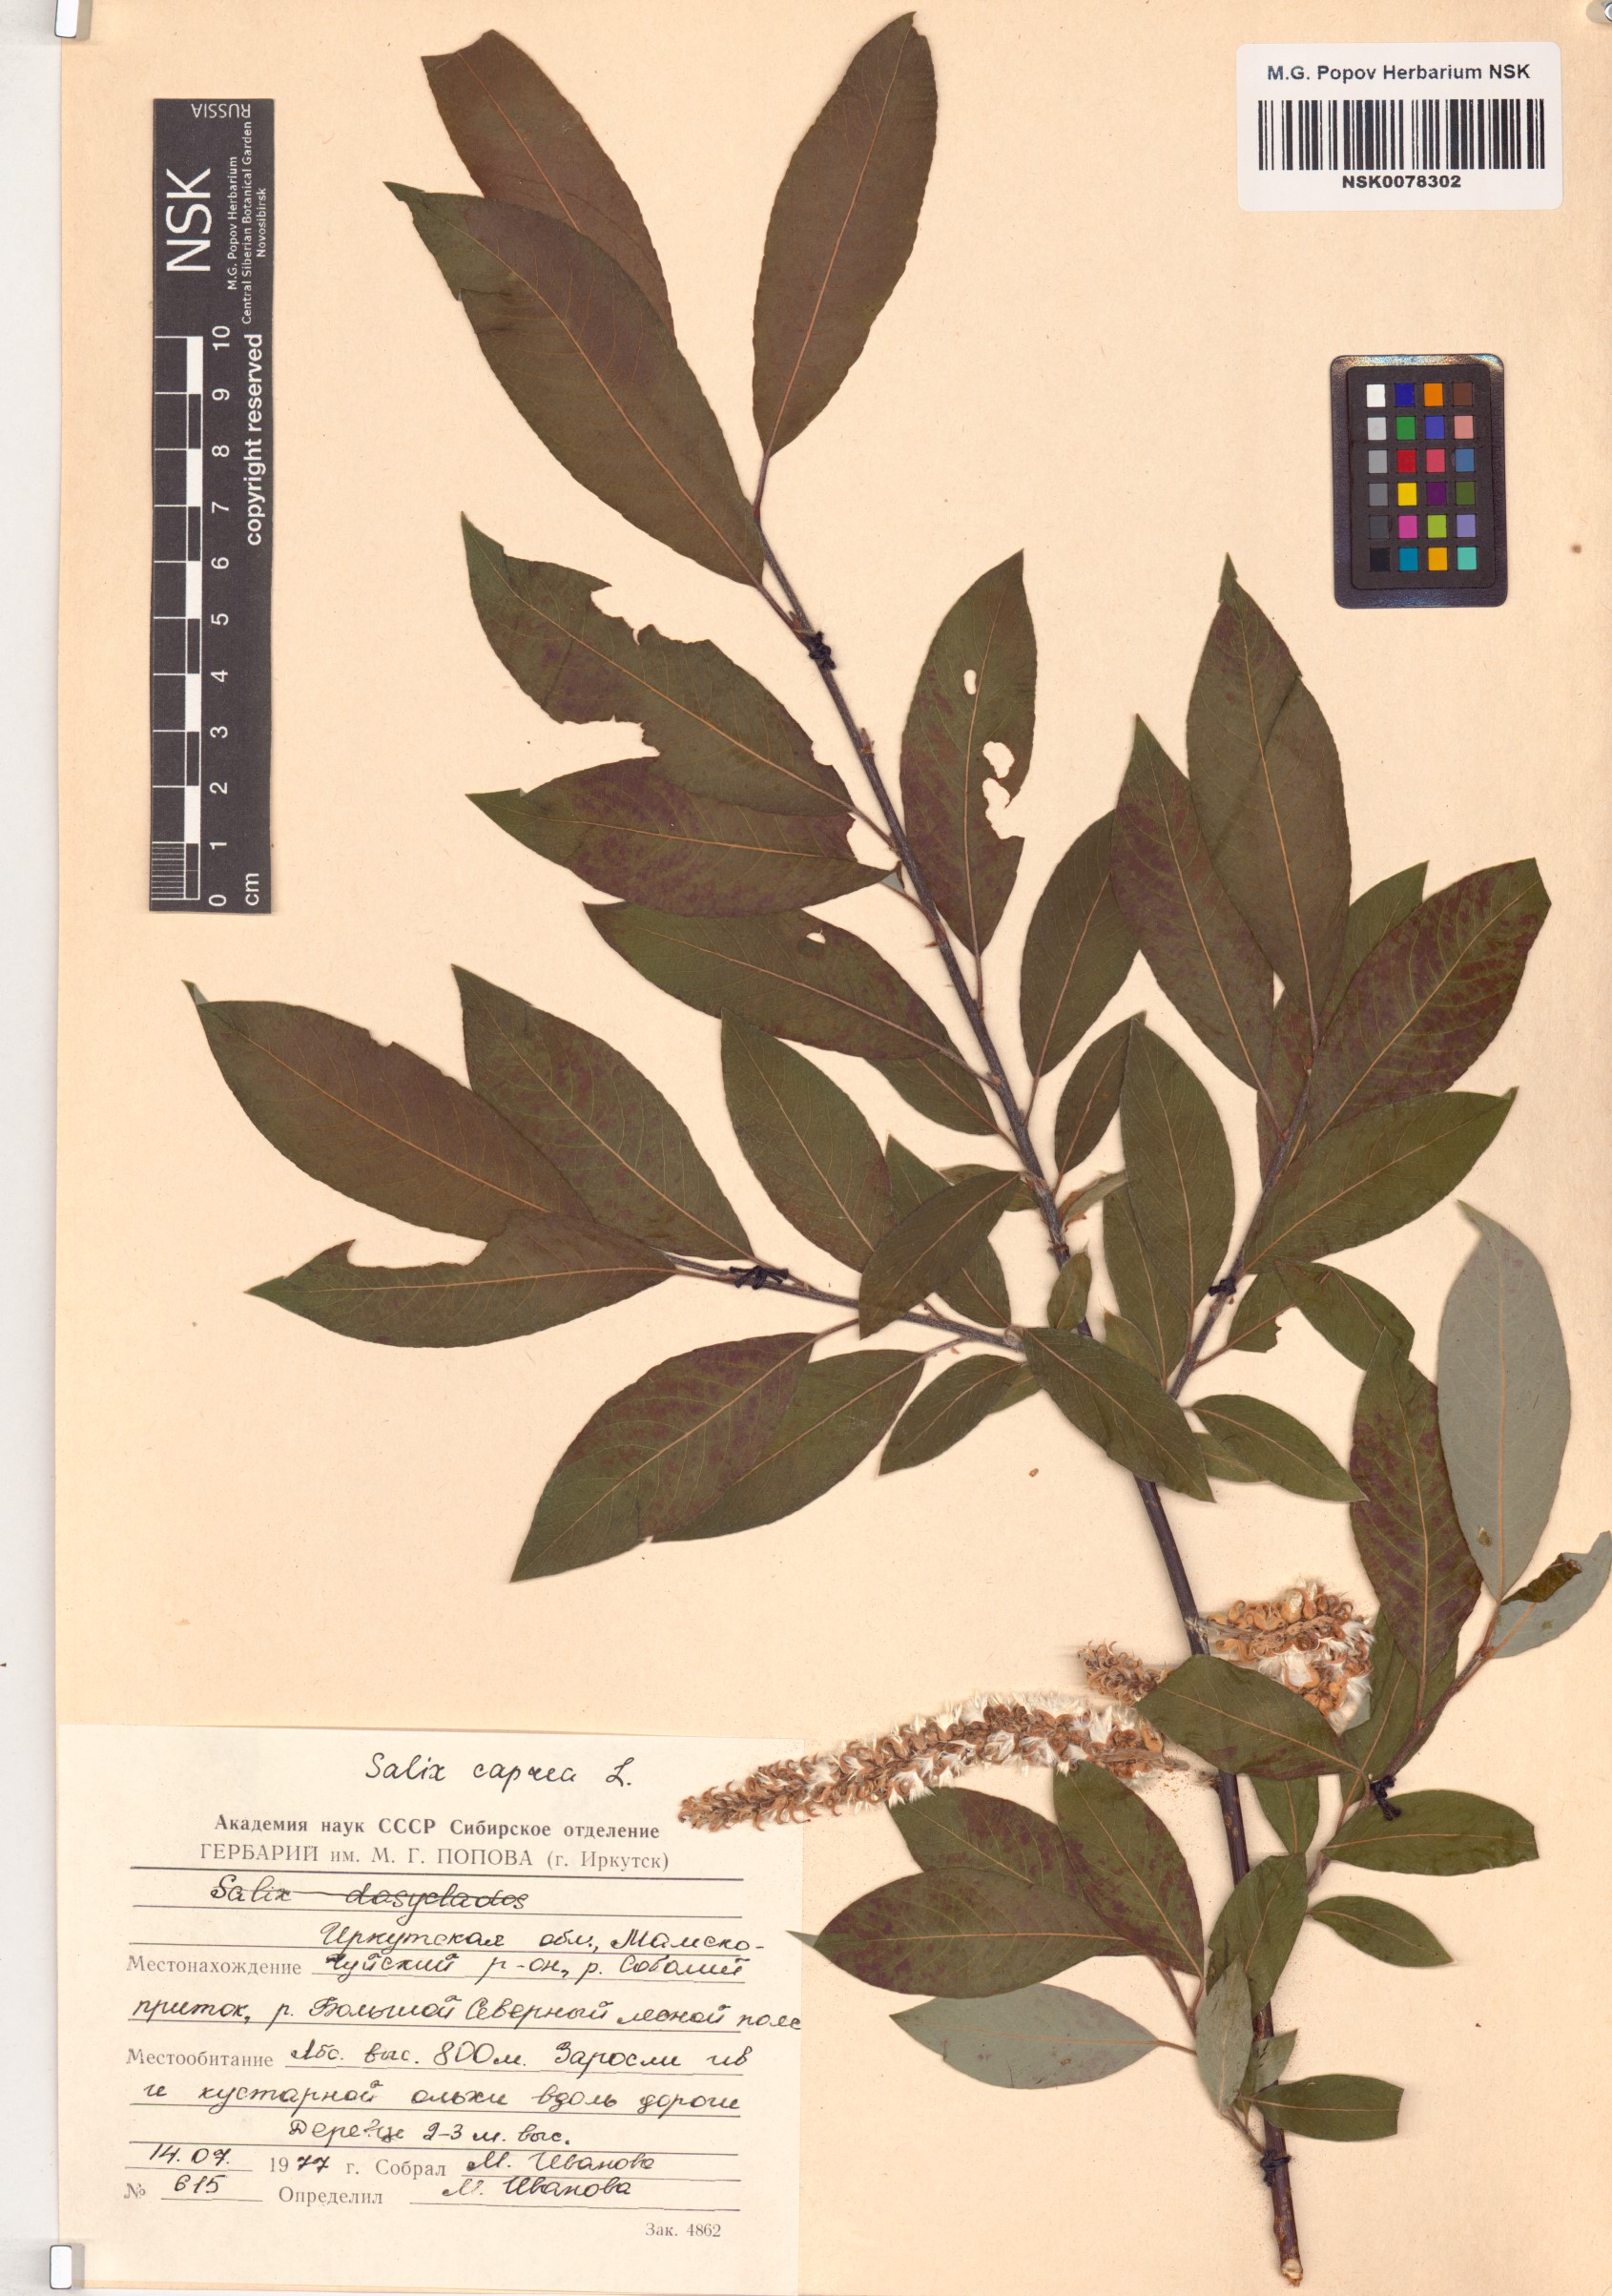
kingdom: Plantae
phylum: Tracheophyta
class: Magnoliopsida
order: Malpighiales
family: Salicaceae
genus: Salix
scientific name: Salix caprea
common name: Goat willow
